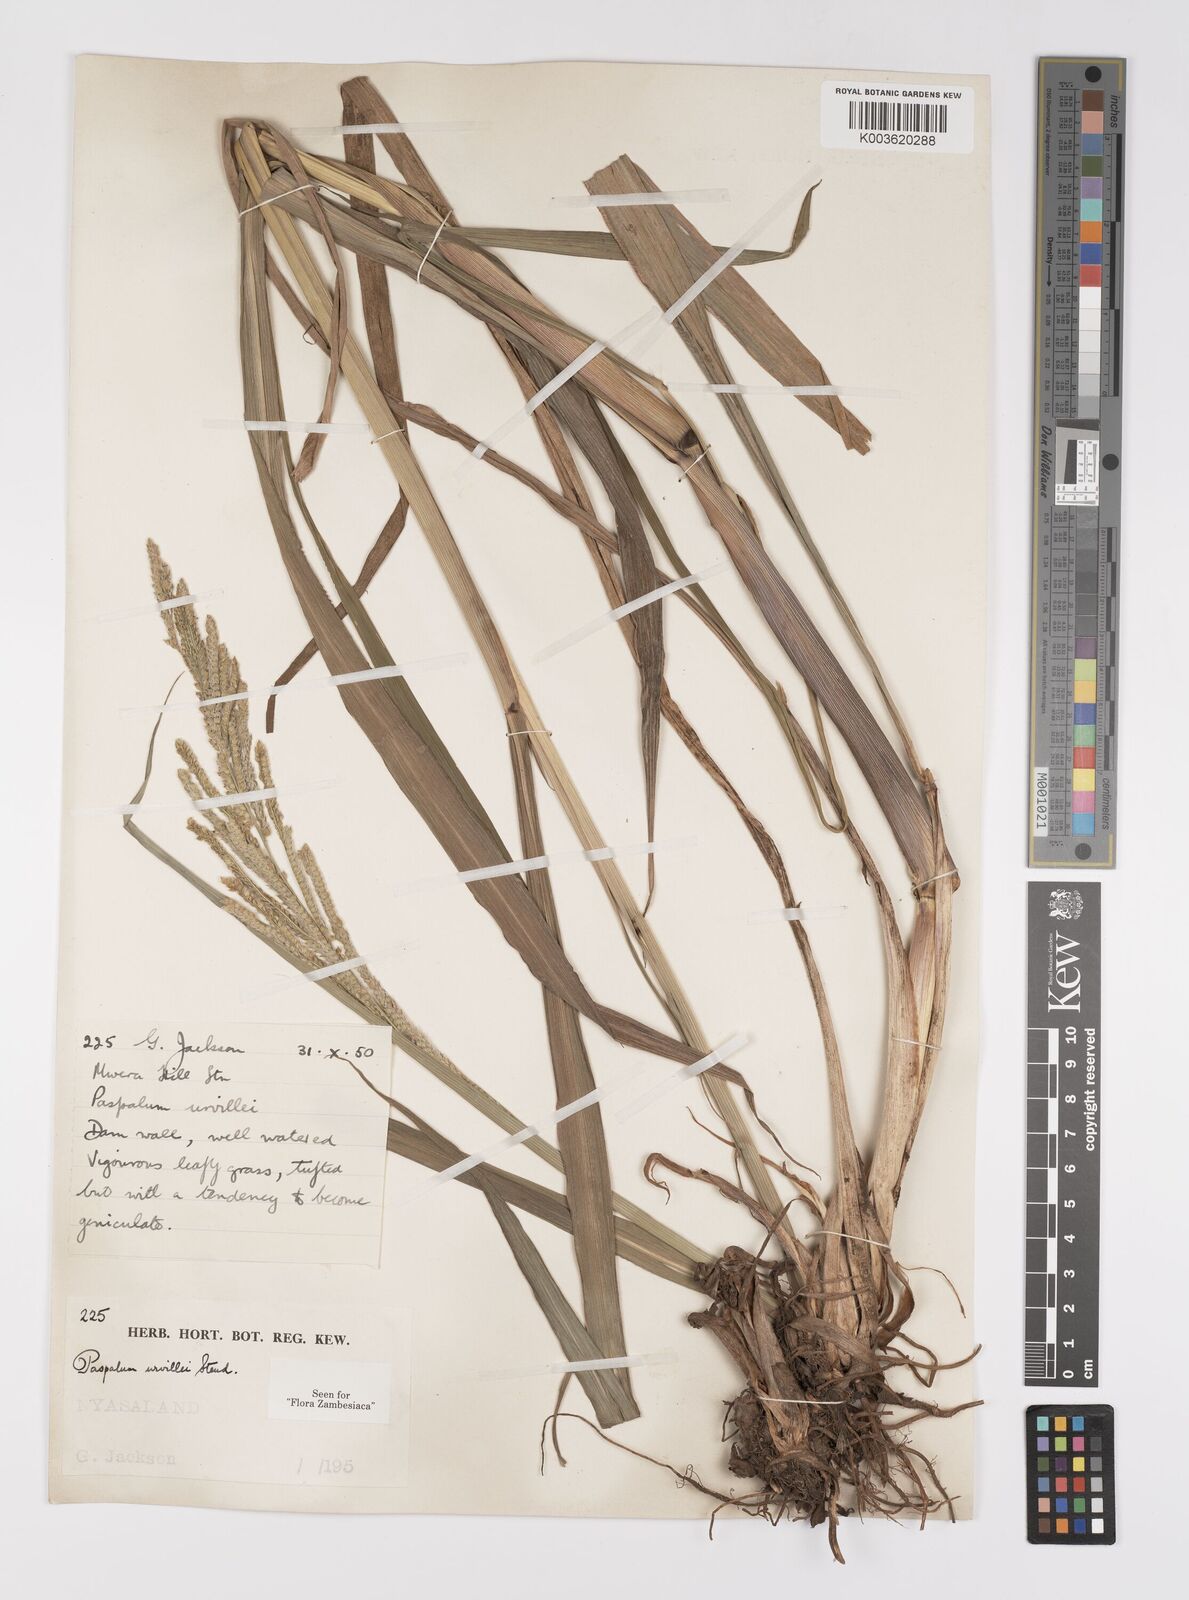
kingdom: Plantae
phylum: Tracheophyta
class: Liliopsida
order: Poales
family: Poaceae
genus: Paspalum
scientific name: Paspalum urvillei
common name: Vasey's grass
